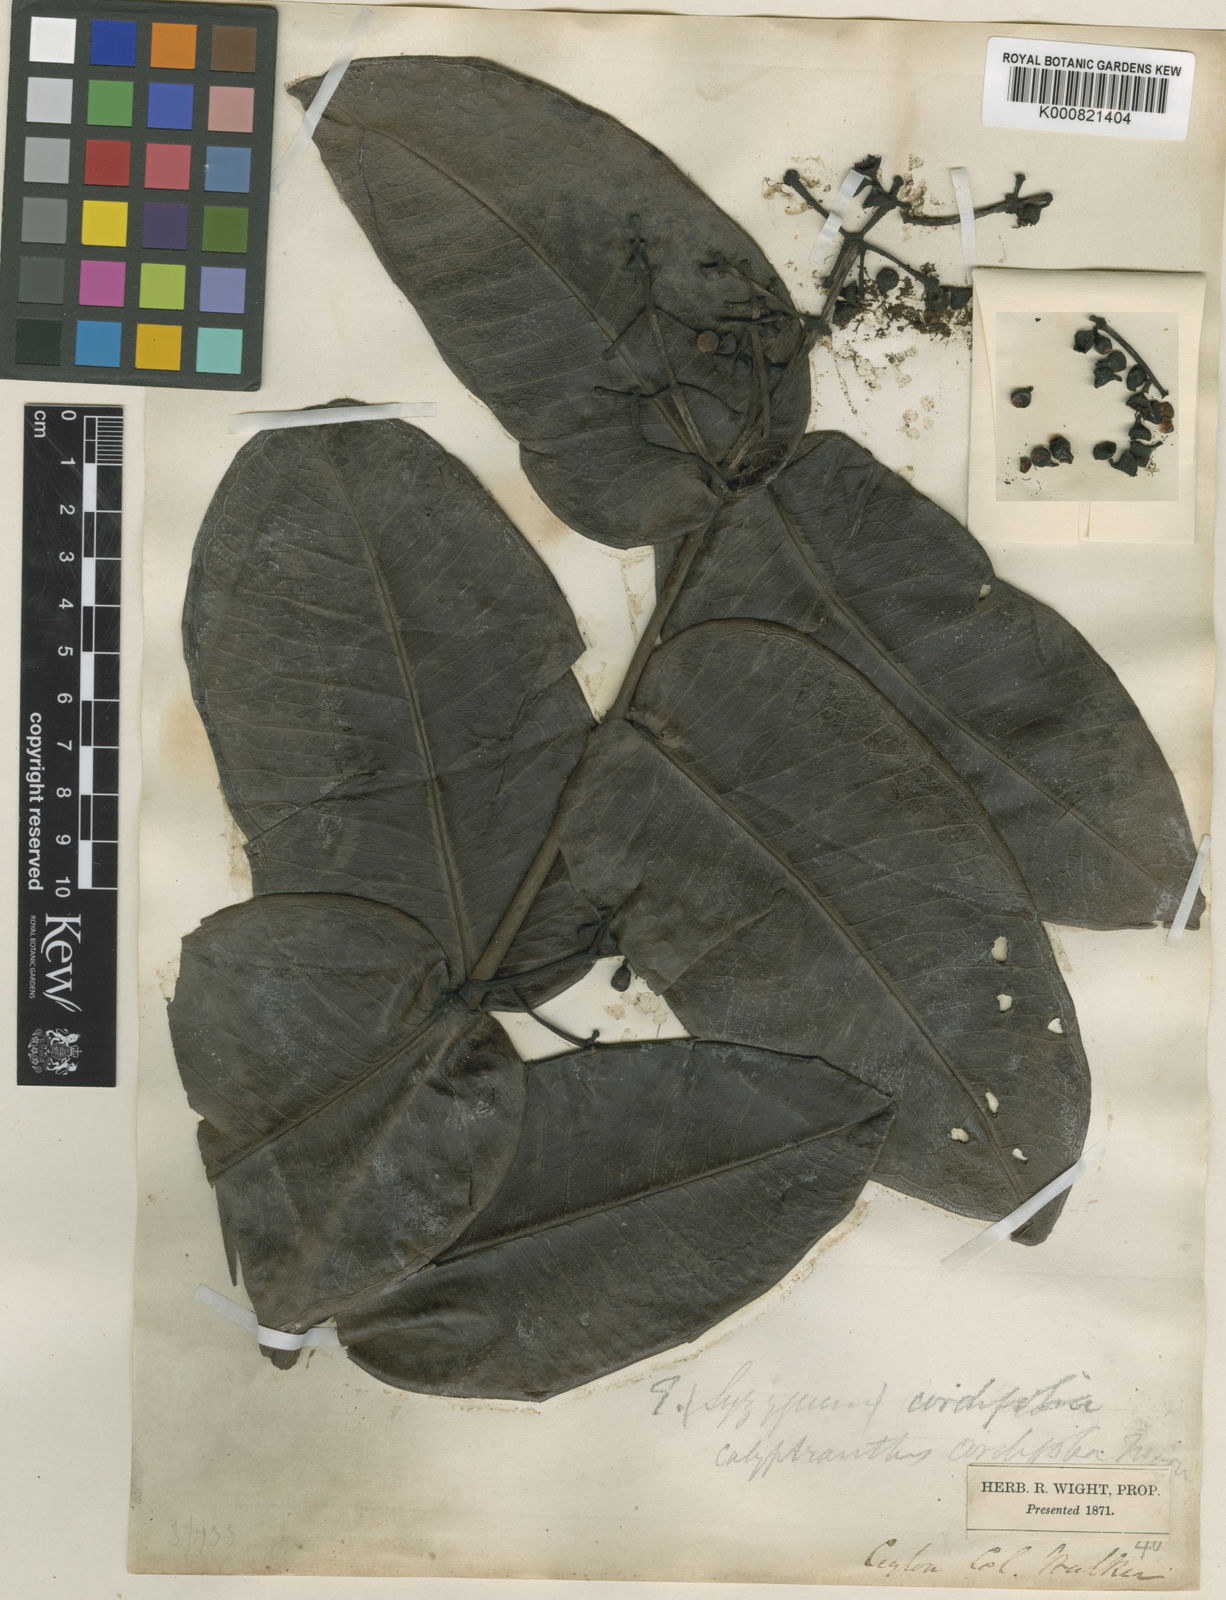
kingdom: Plantae
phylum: Tracheophyta
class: Magnoliopsida
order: Myrtales
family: Myrtaceae
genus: Syzygium
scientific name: Syzygium cordifolium
